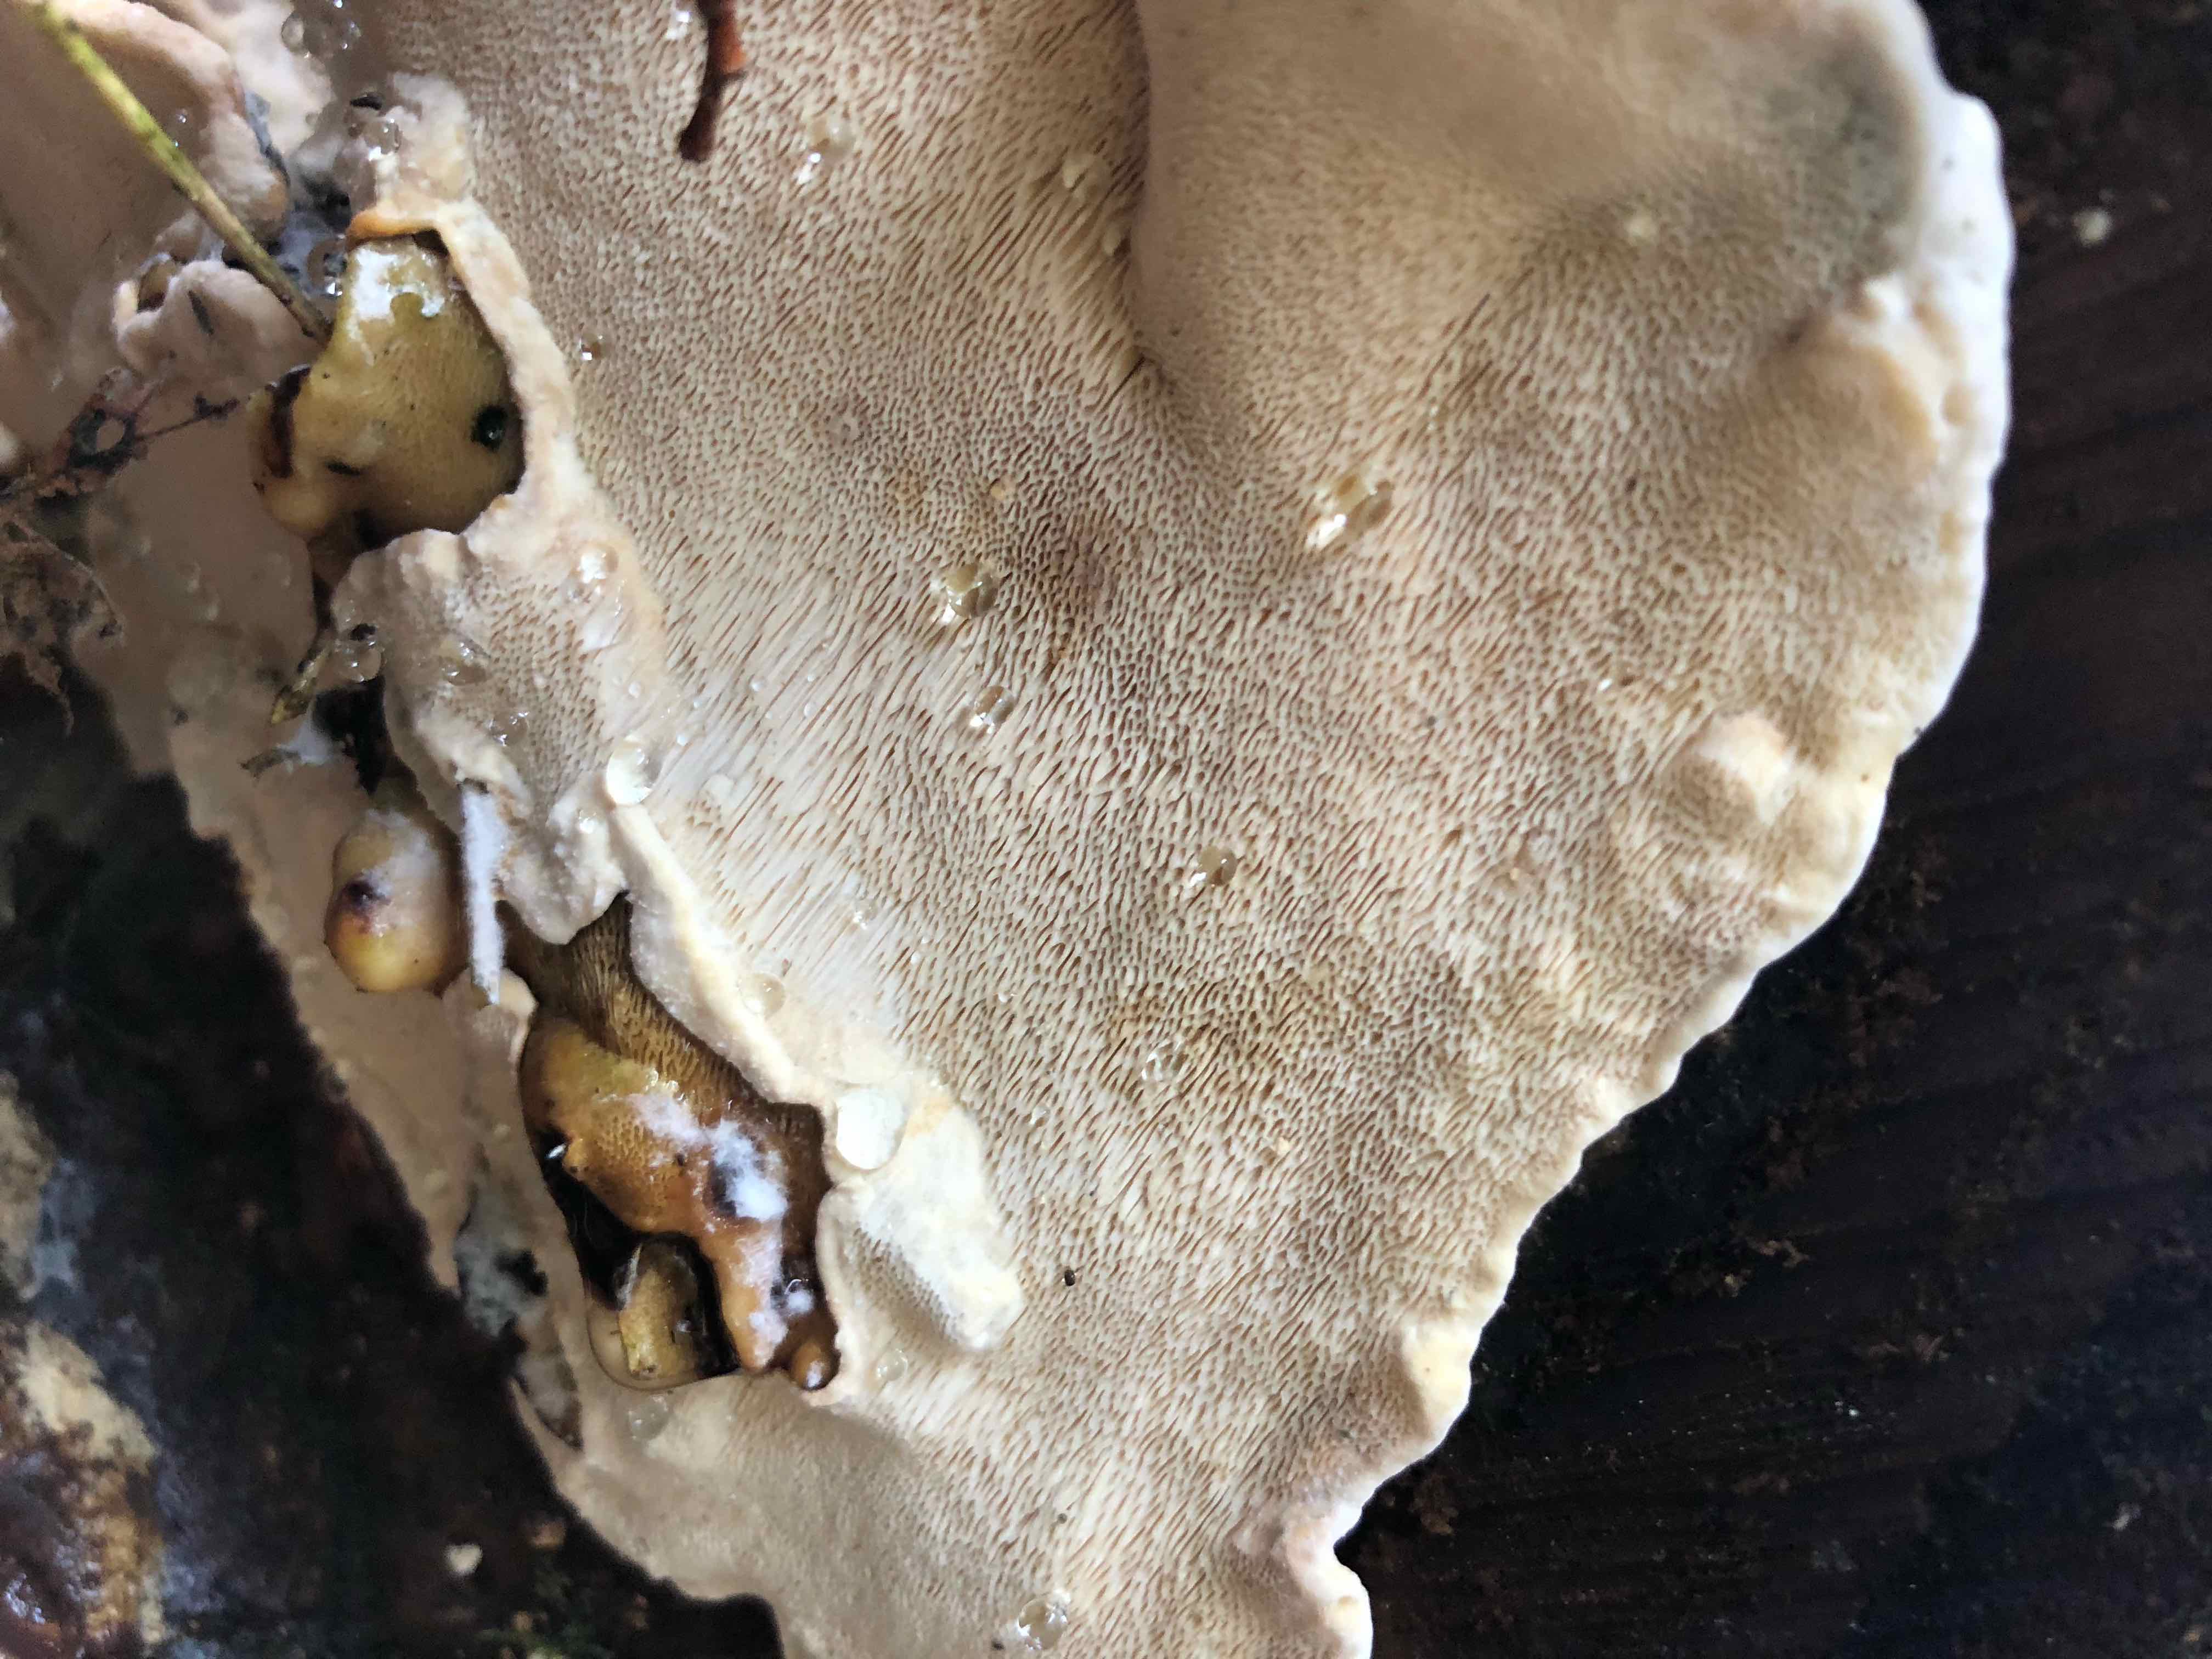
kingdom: Fungi
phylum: Basidiomycota
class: Agaricomycetes
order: Russulales
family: Bondarzewiaceae
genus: Heterobasidion
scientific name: Heterobasidion
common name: rodfordærver
